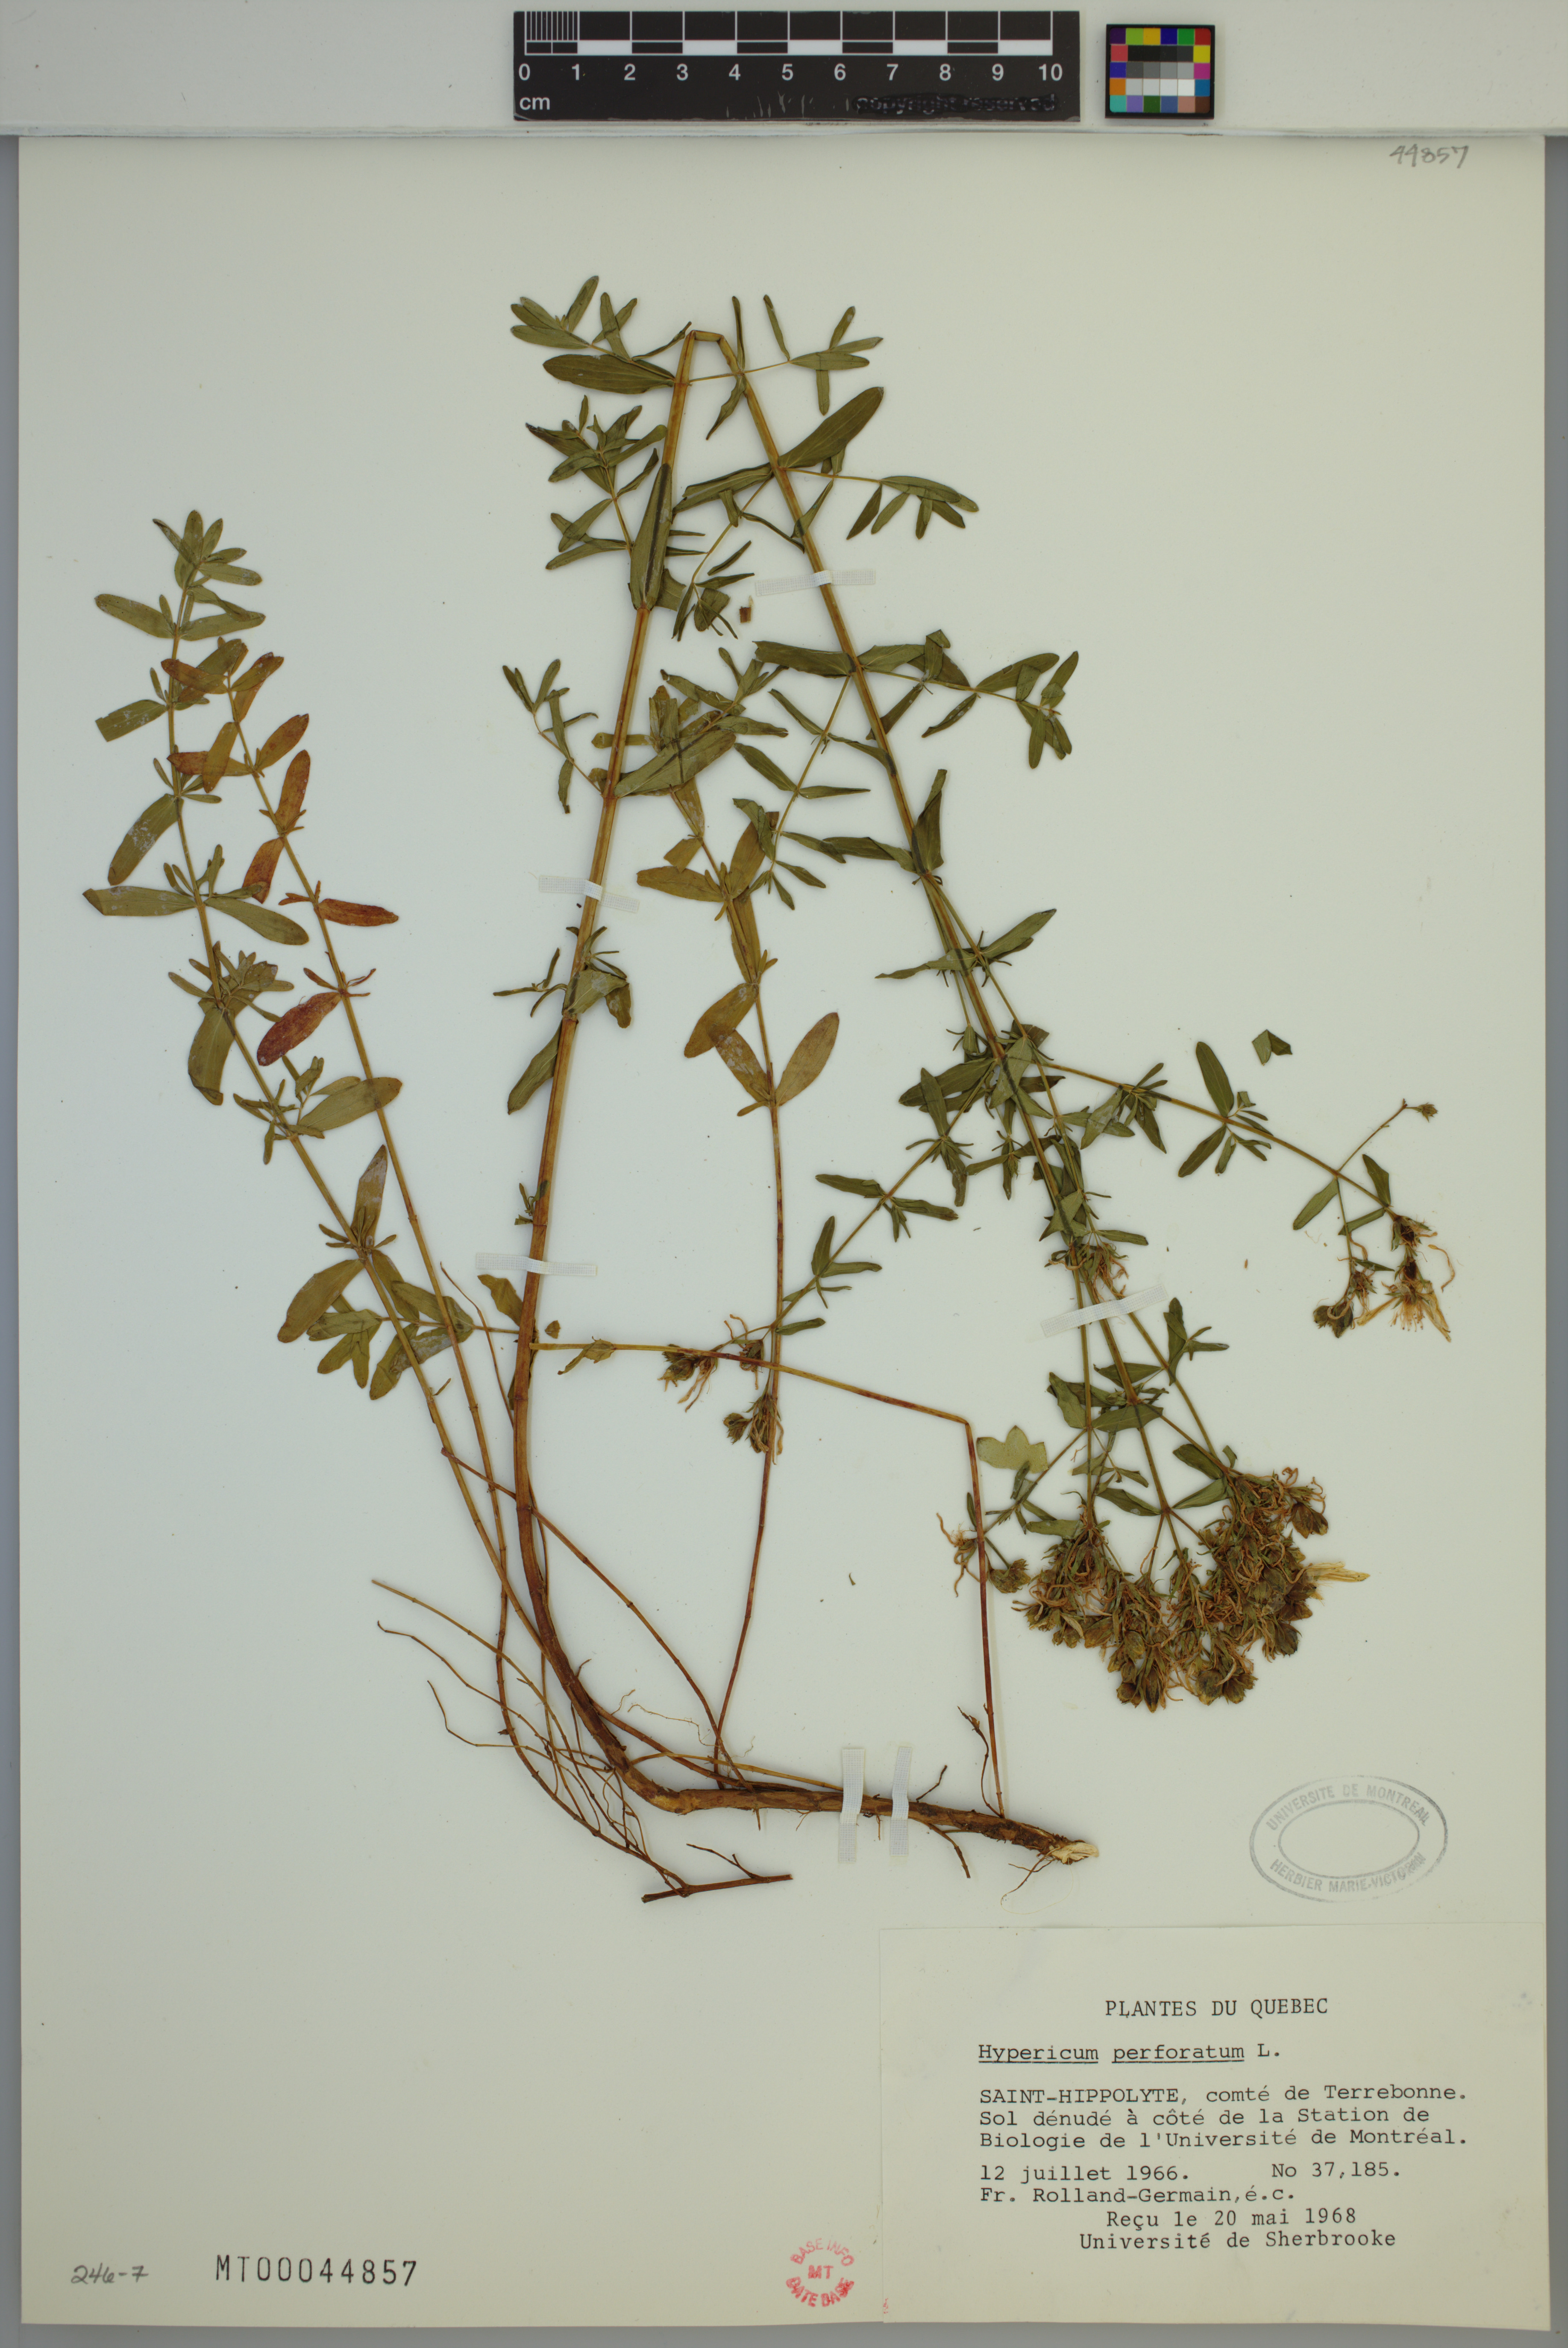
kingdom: Plantae
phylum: Tracheophyta
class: Magnoliopsida
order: Malpighiales
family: Hypericaceae
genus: Hypericum
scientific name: Hypericum perforatum
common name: Common st. johnswort
